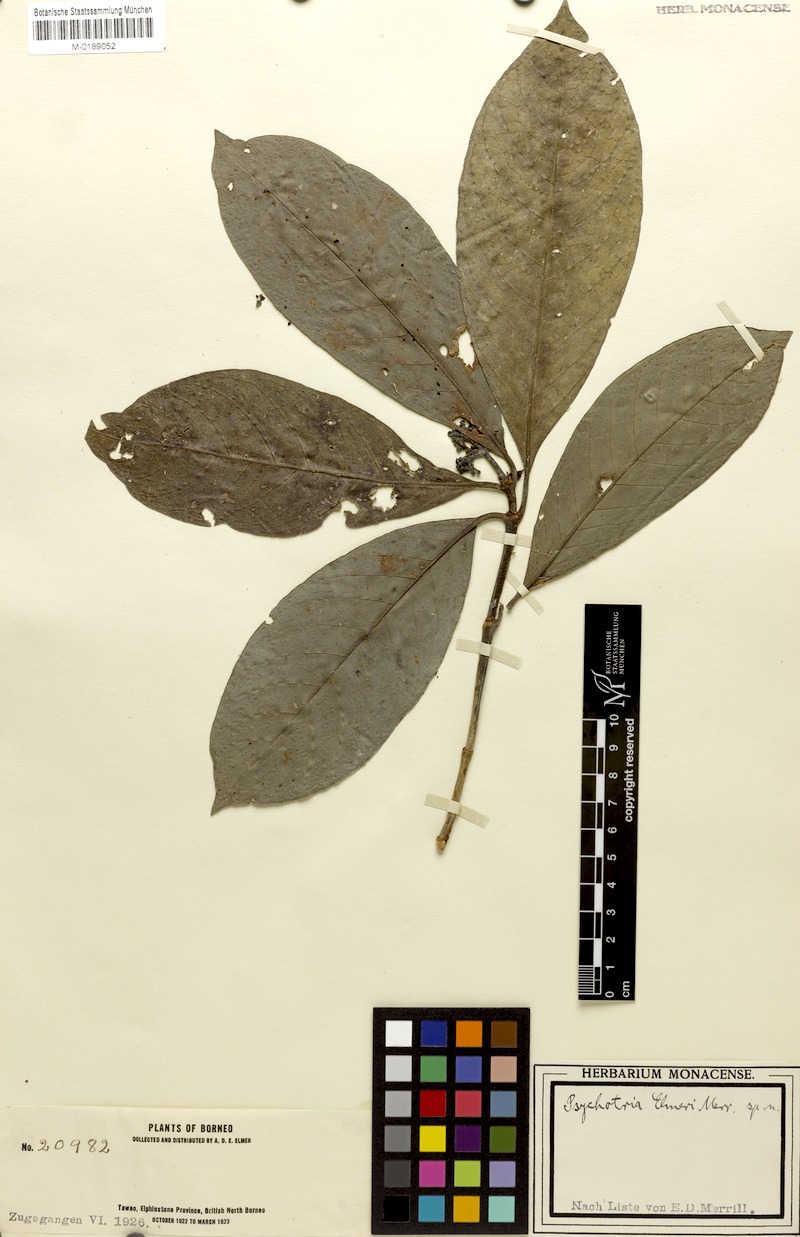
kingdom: Plantae
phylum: Tracheophyta
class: Magnoliopsida
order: Gentianales
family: Rubiaceae
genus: Psychotria
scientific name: Psychotria elmeri
